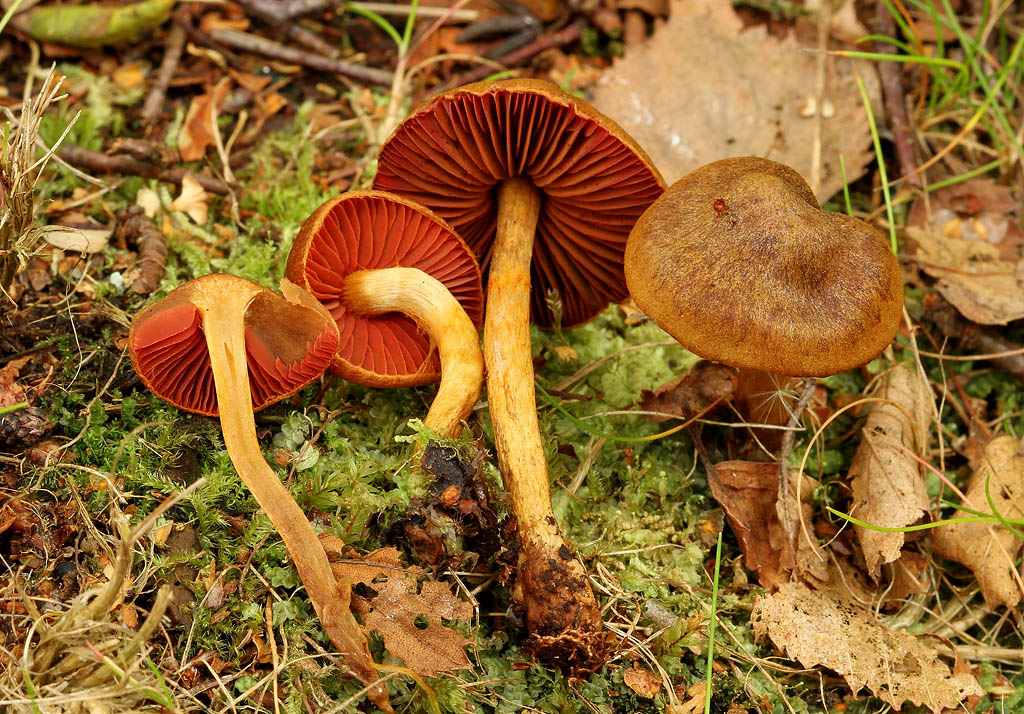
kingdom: Fungi
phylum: Basidiomycota
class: Agaricomycetes
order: Agaricales
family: Cortinariaceae
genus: Cortinarius
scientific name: Cortinarius
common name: cinnoberbladet slørhat
